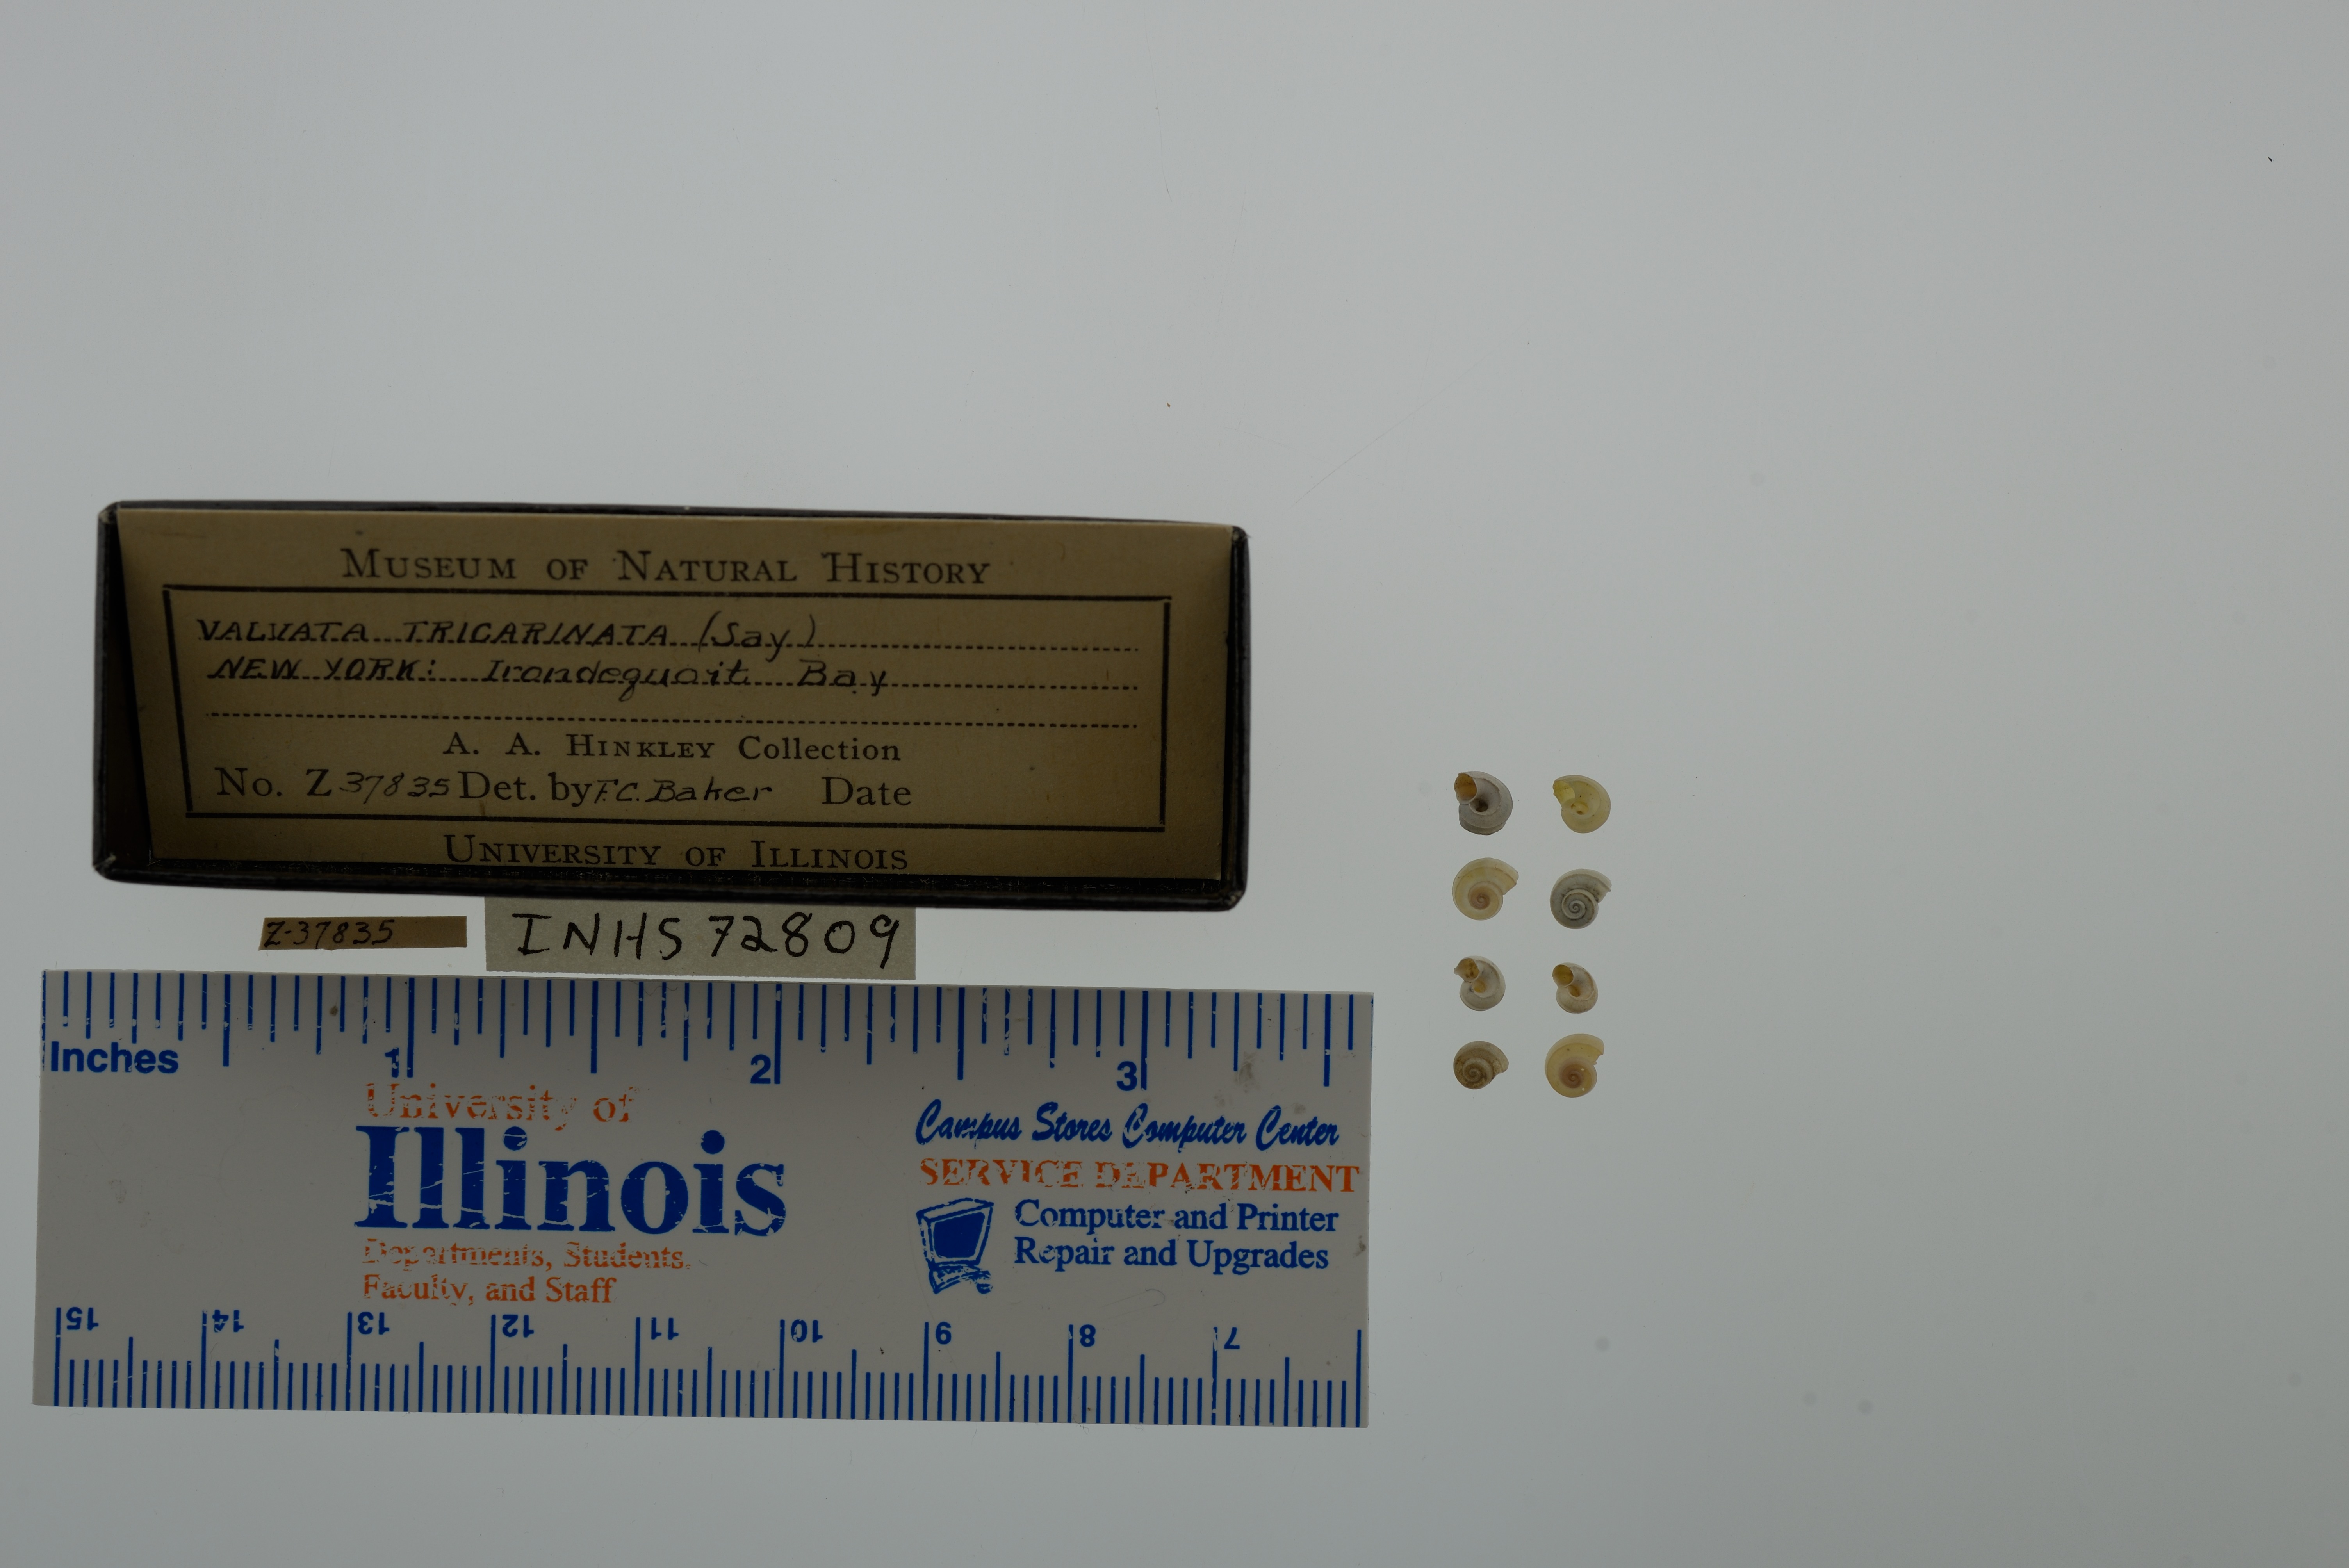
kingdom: Animalia
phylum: Mollusca
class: Gastropoda
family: Valvatidae
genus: Valvata
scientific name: Valvata tricarinata
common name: Three-ridge valvata
